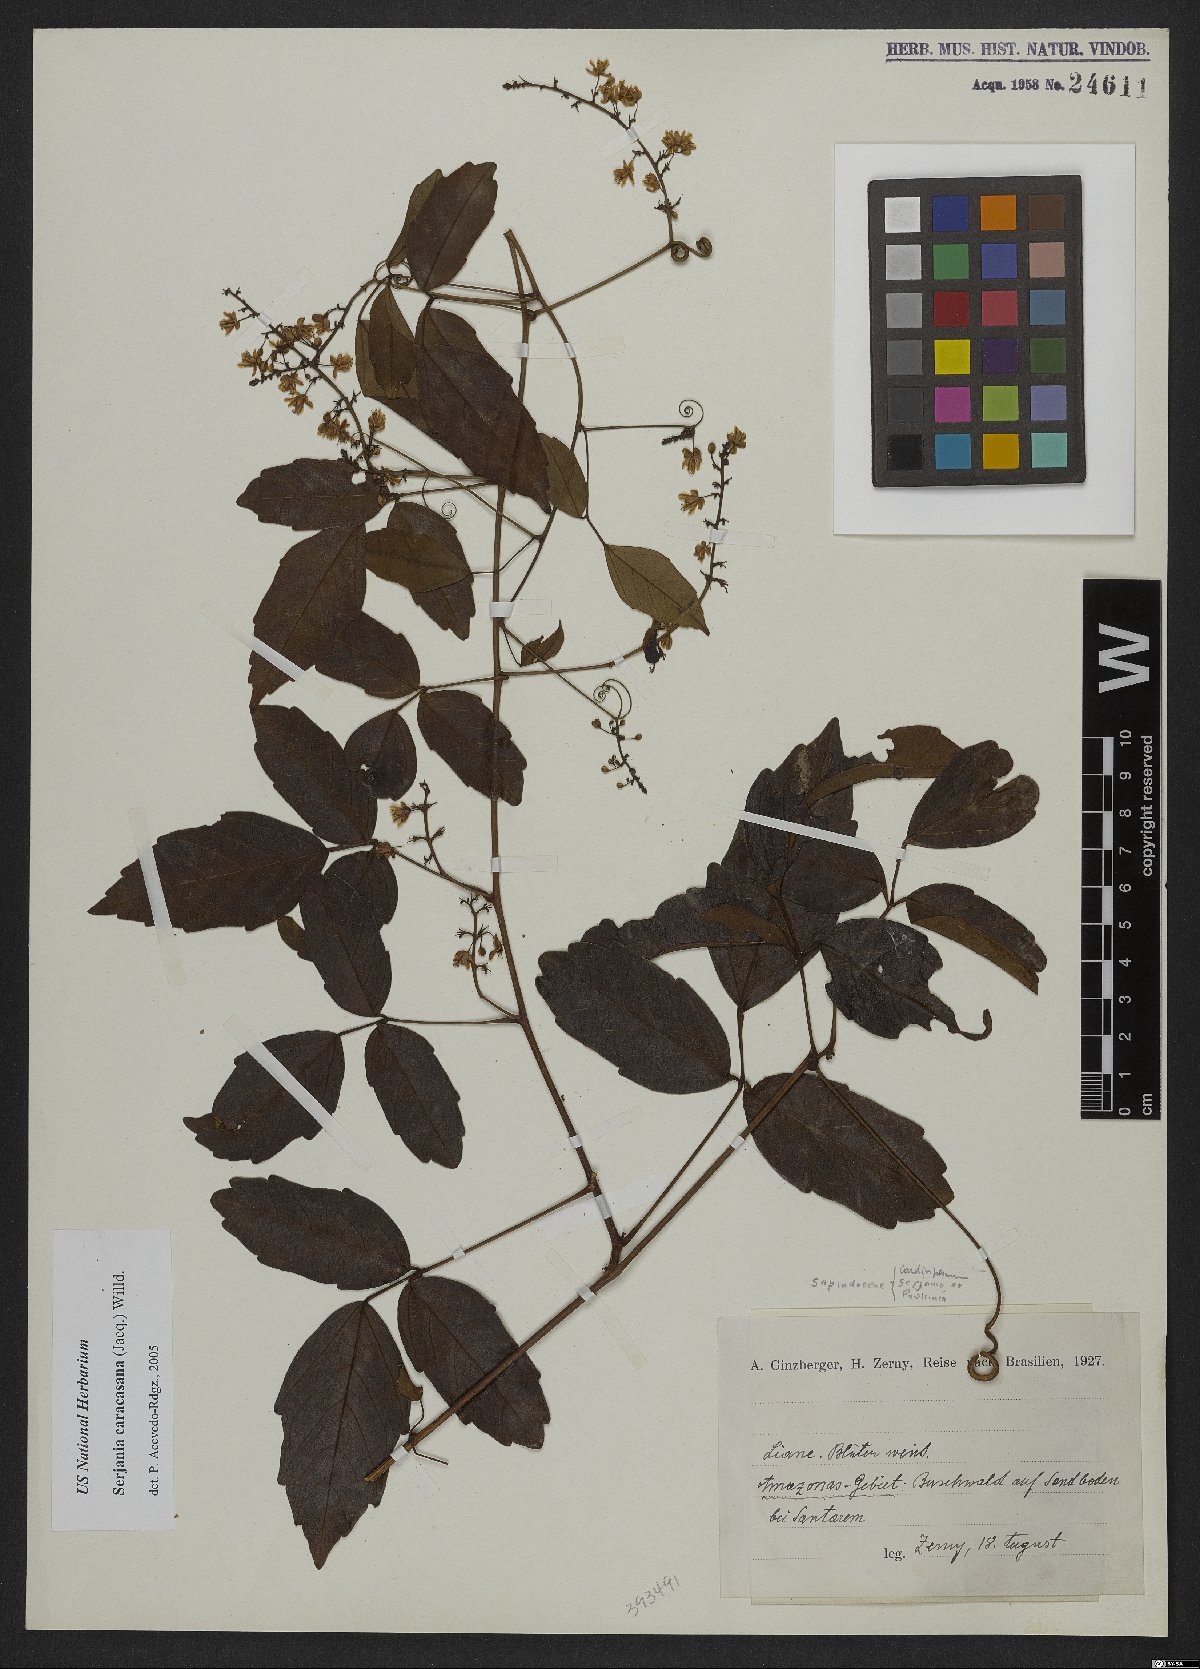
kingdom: Plantae
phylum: Tracheophyta
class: Magnoliopsida
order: Sapindales
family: Sapindaceae
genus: Serjania
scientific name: Serjania caracasana
